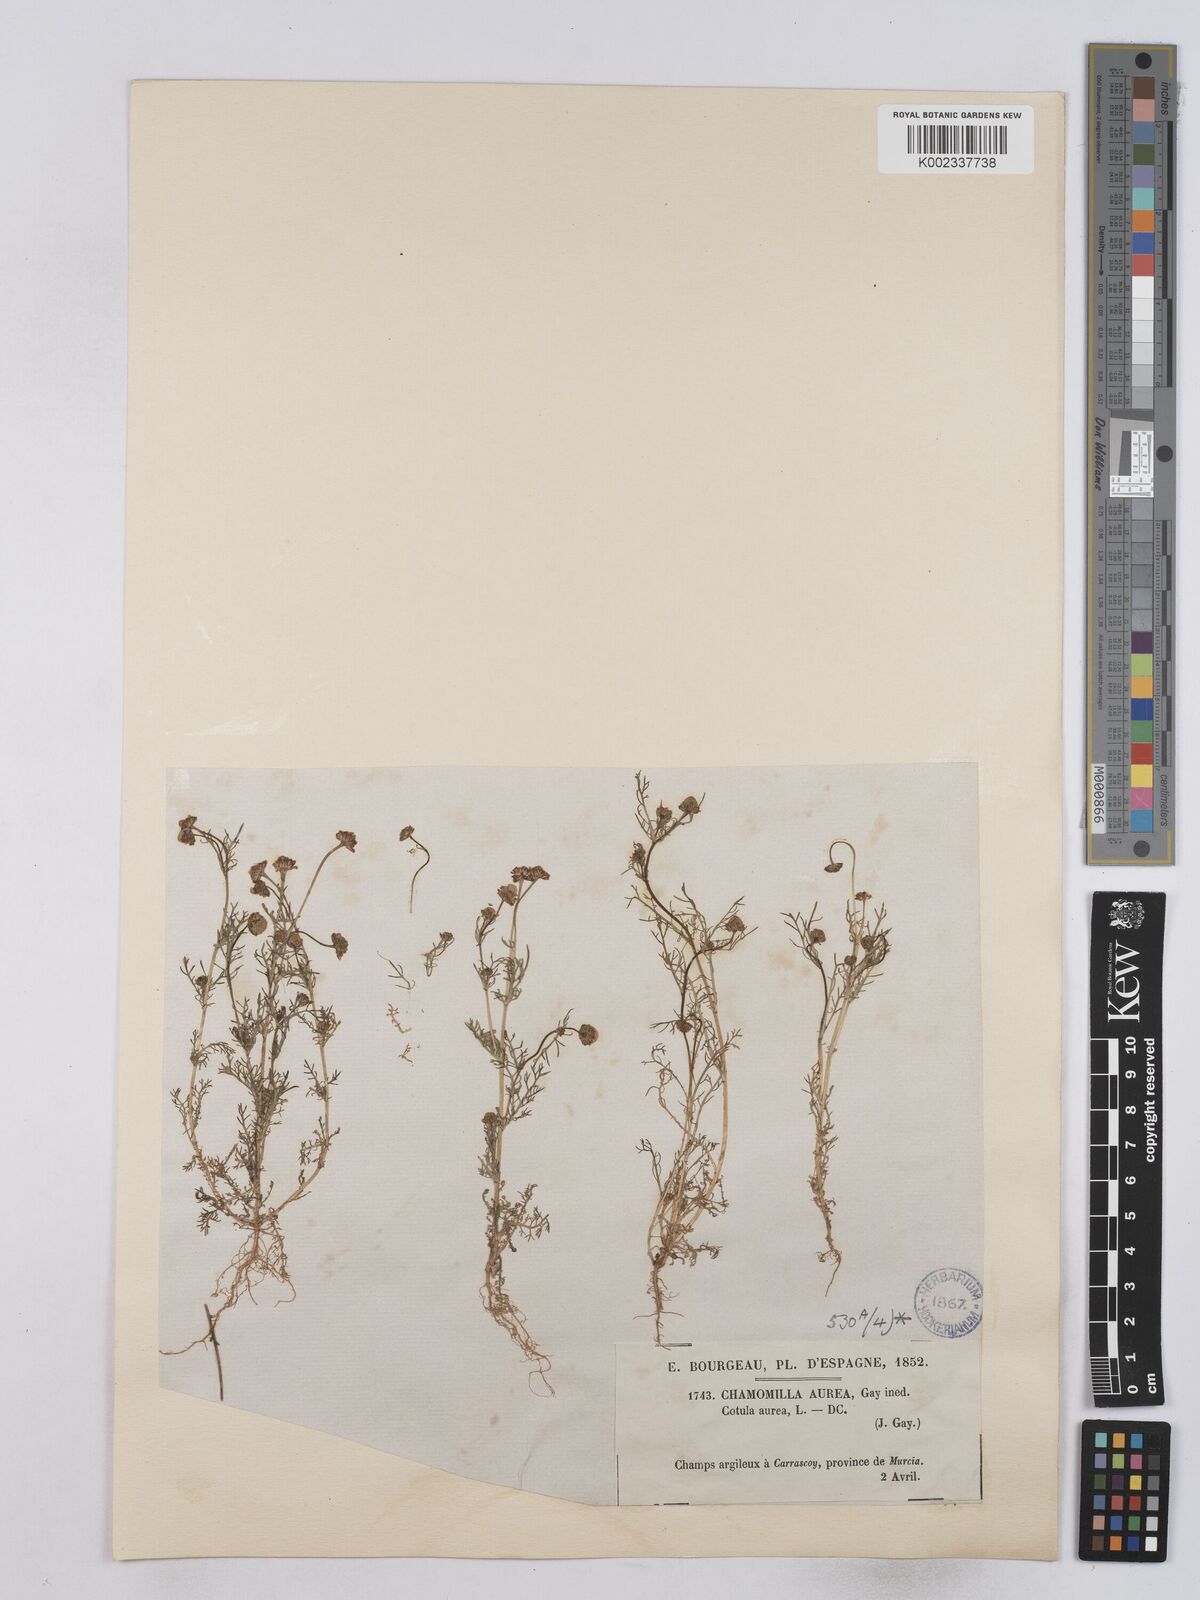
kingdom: Plantae
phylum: Tracheophyta
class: Magnoliopsida
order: Asterales
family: Asteraceae
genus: Matricaria
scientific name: Matricaria aurea
